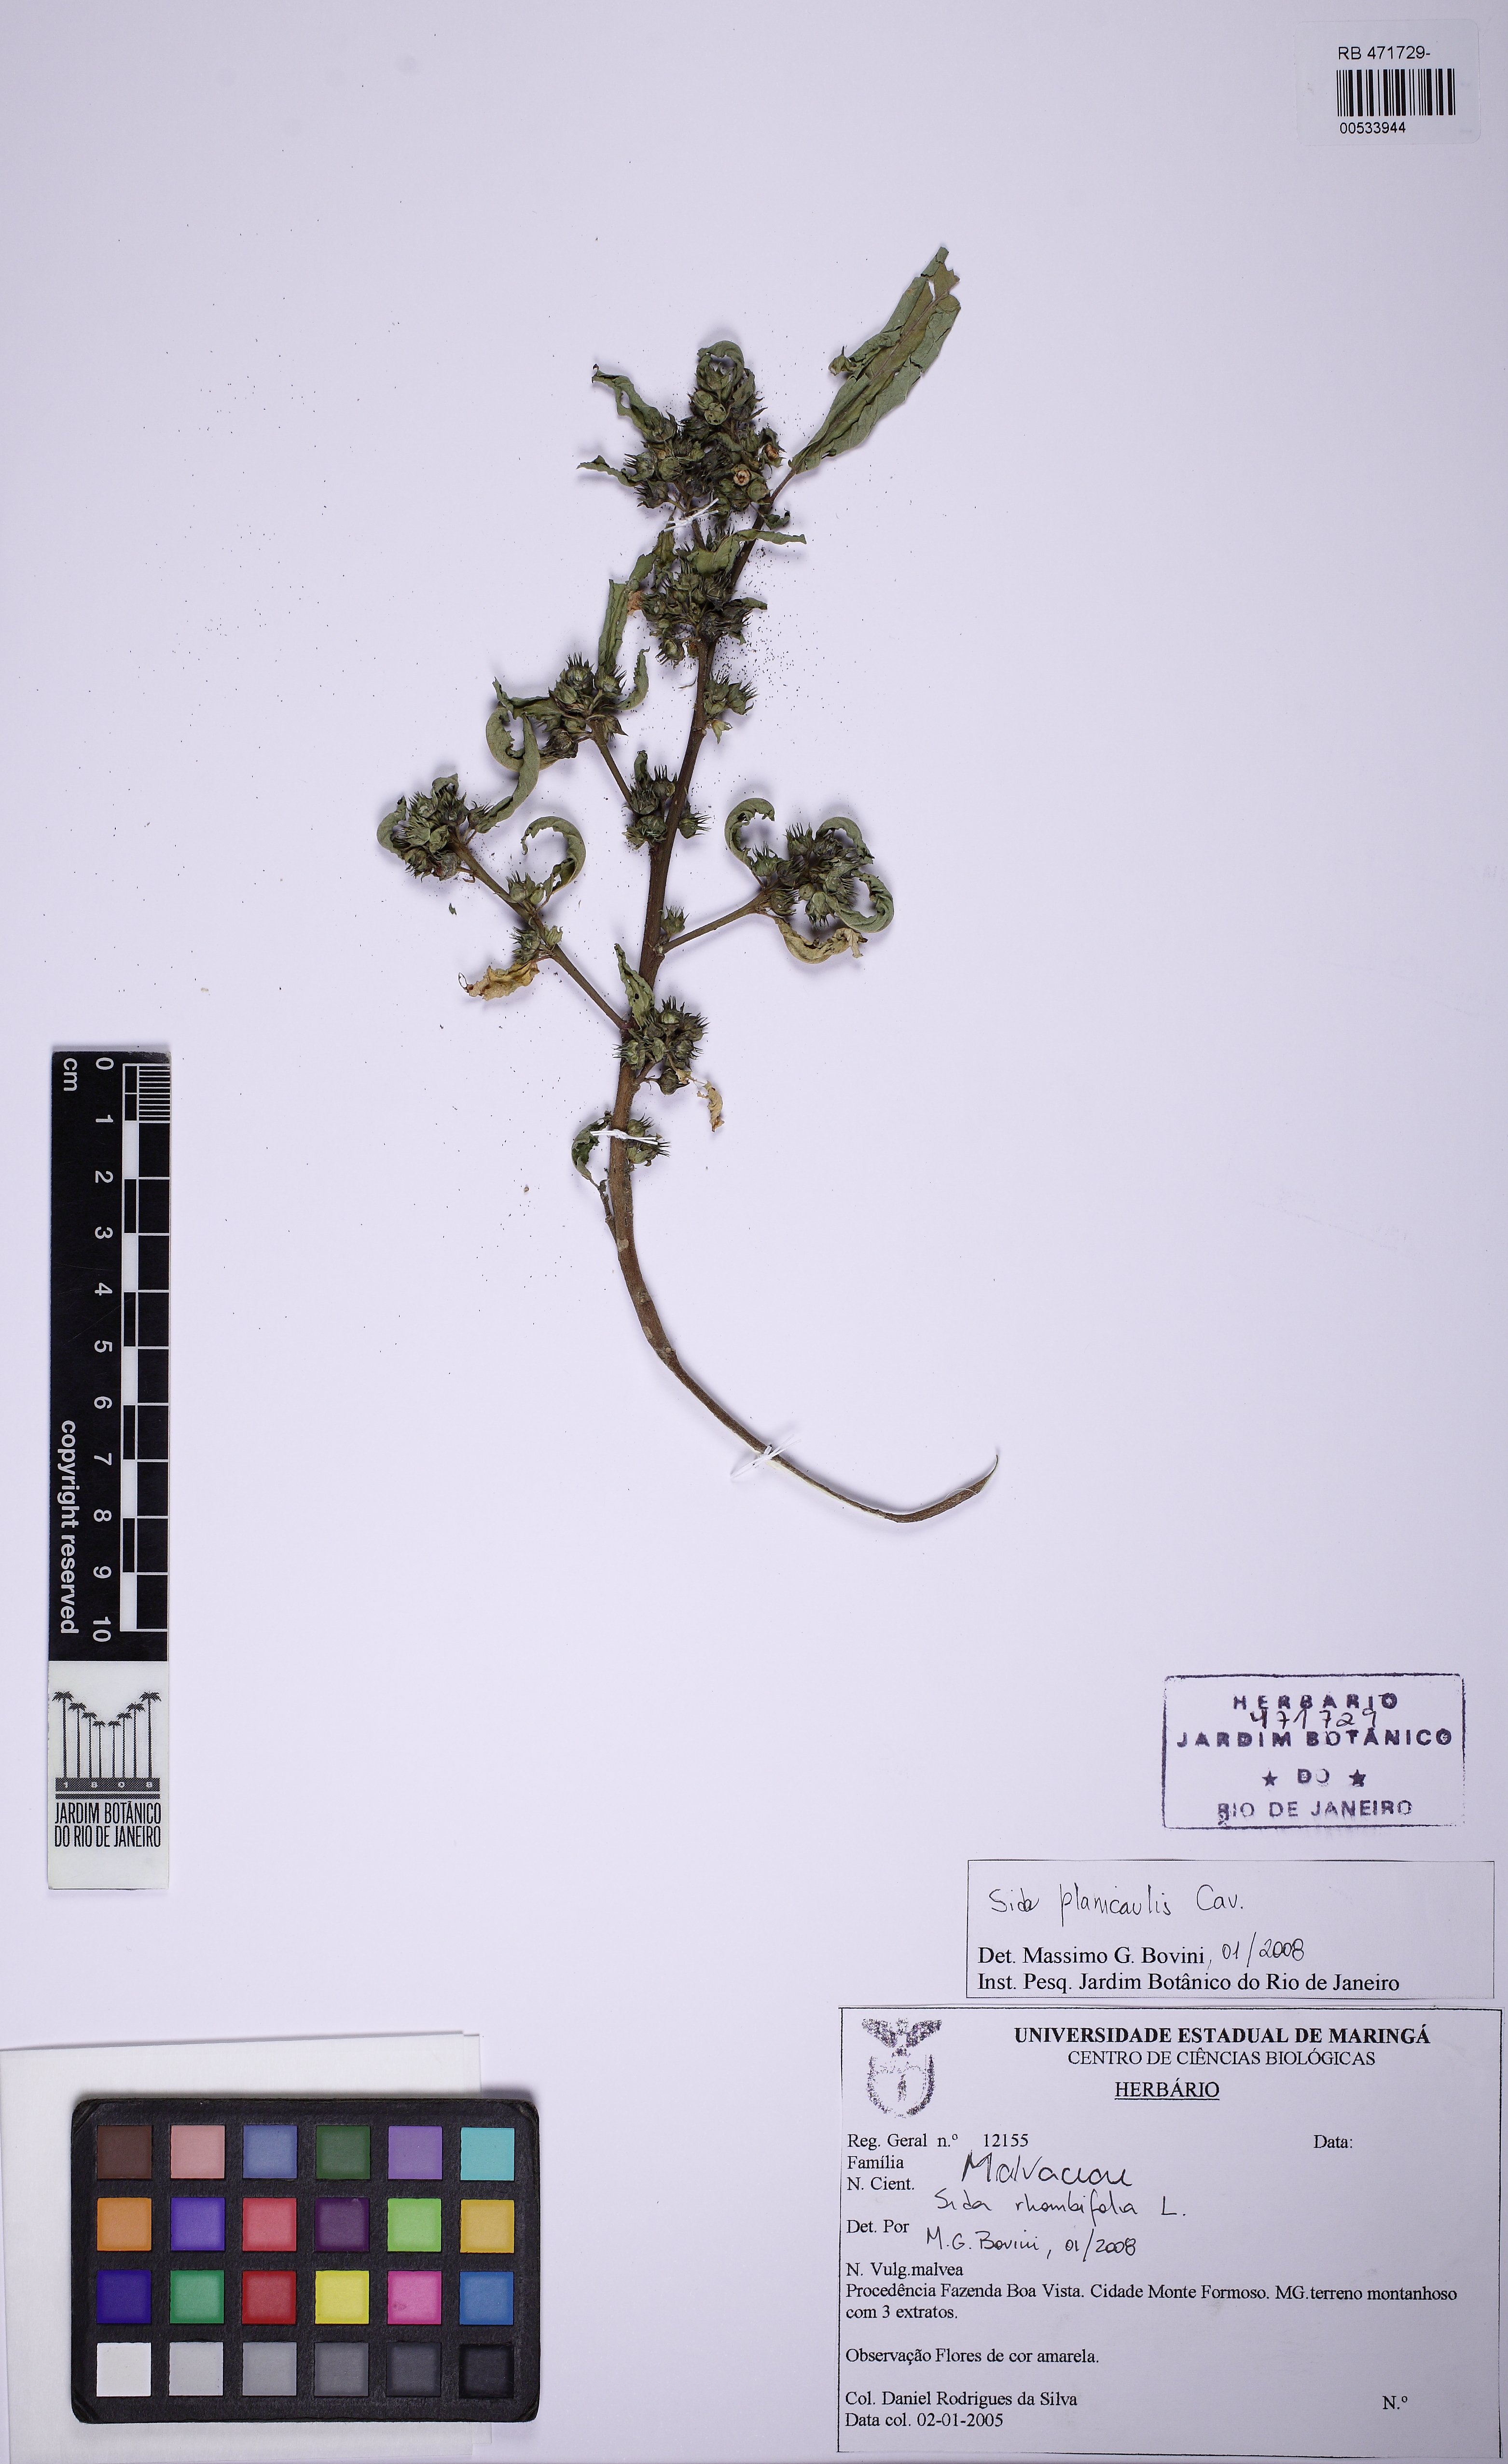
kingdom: Plantae
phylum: Tracheophyta
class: Magnoliopsida
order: Malvales
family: Malvaceae
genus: Sida
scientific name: Sida planicaulis
